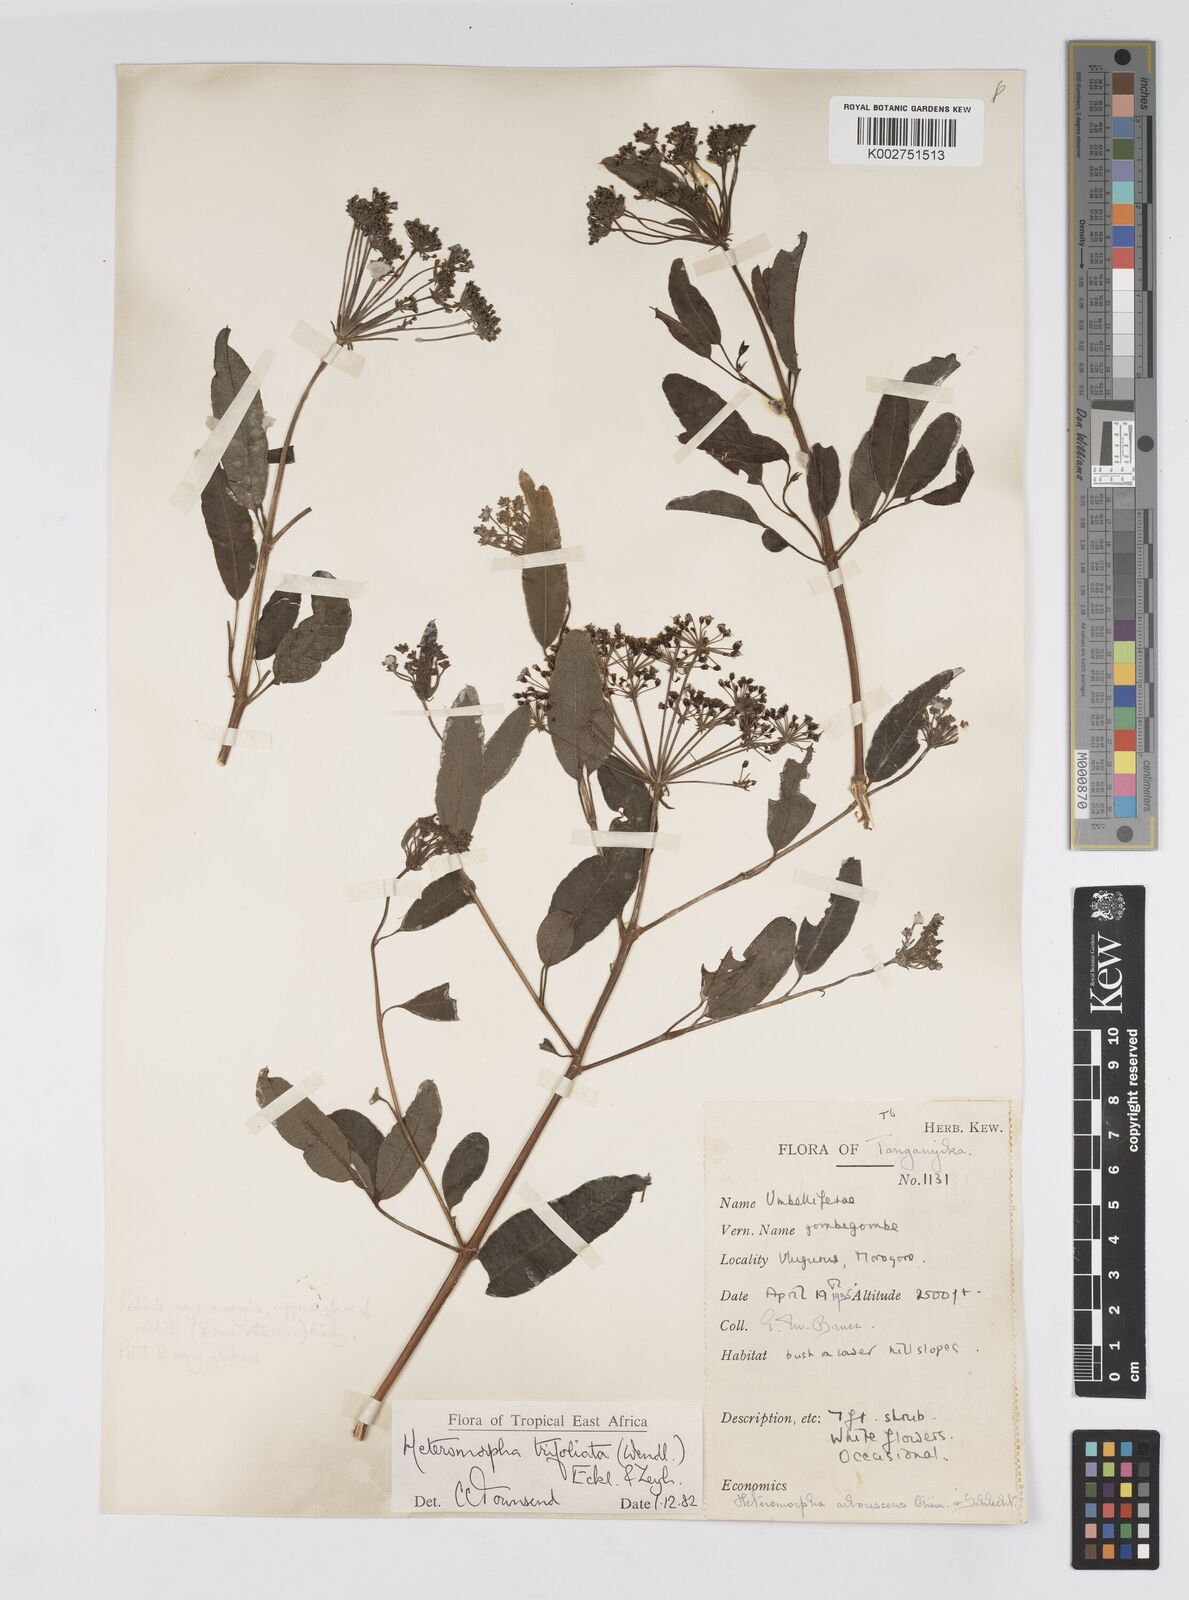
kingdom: Plantae
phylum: Tracheophyta
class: Magnoliopsida
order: Apiales
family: Apiaceae
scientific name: Apiaceae
